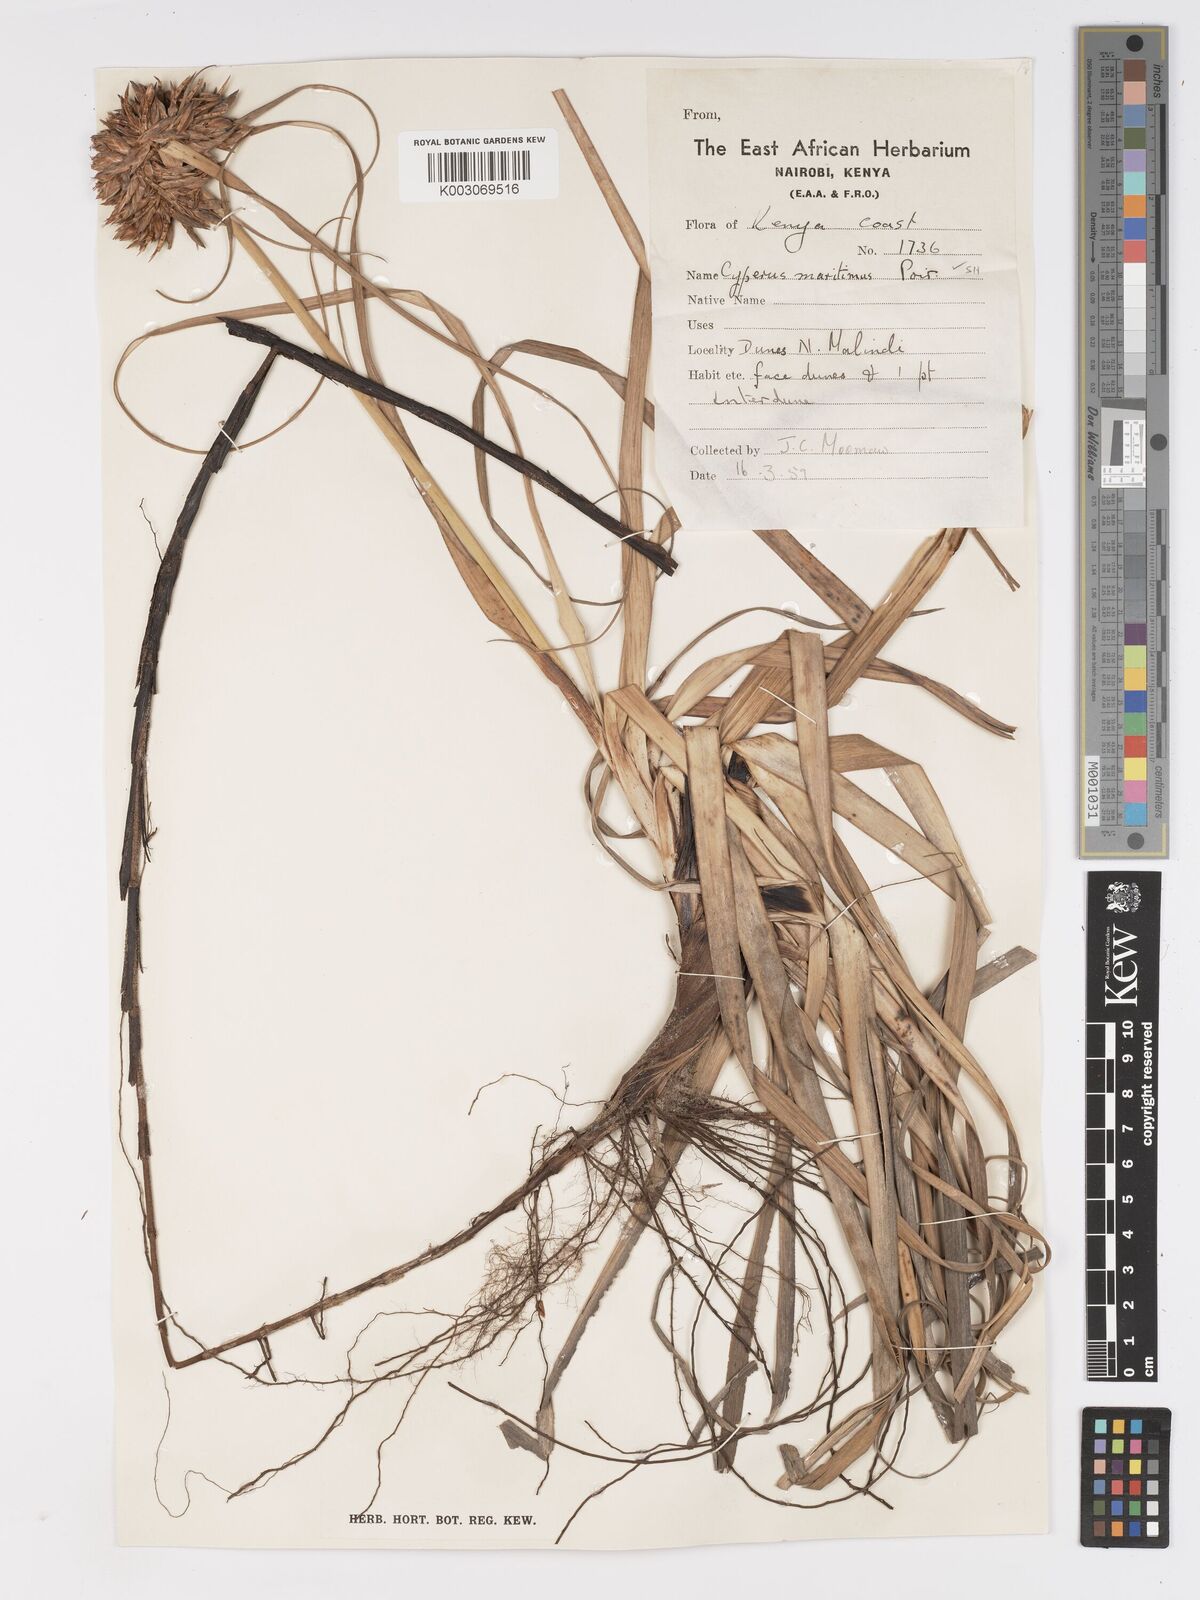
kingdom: Plantae
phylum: Tracheophyta
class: Liliopsida
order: Poales
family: Cyperaceae
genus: Cyperus
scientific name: Cyperus crassipes
